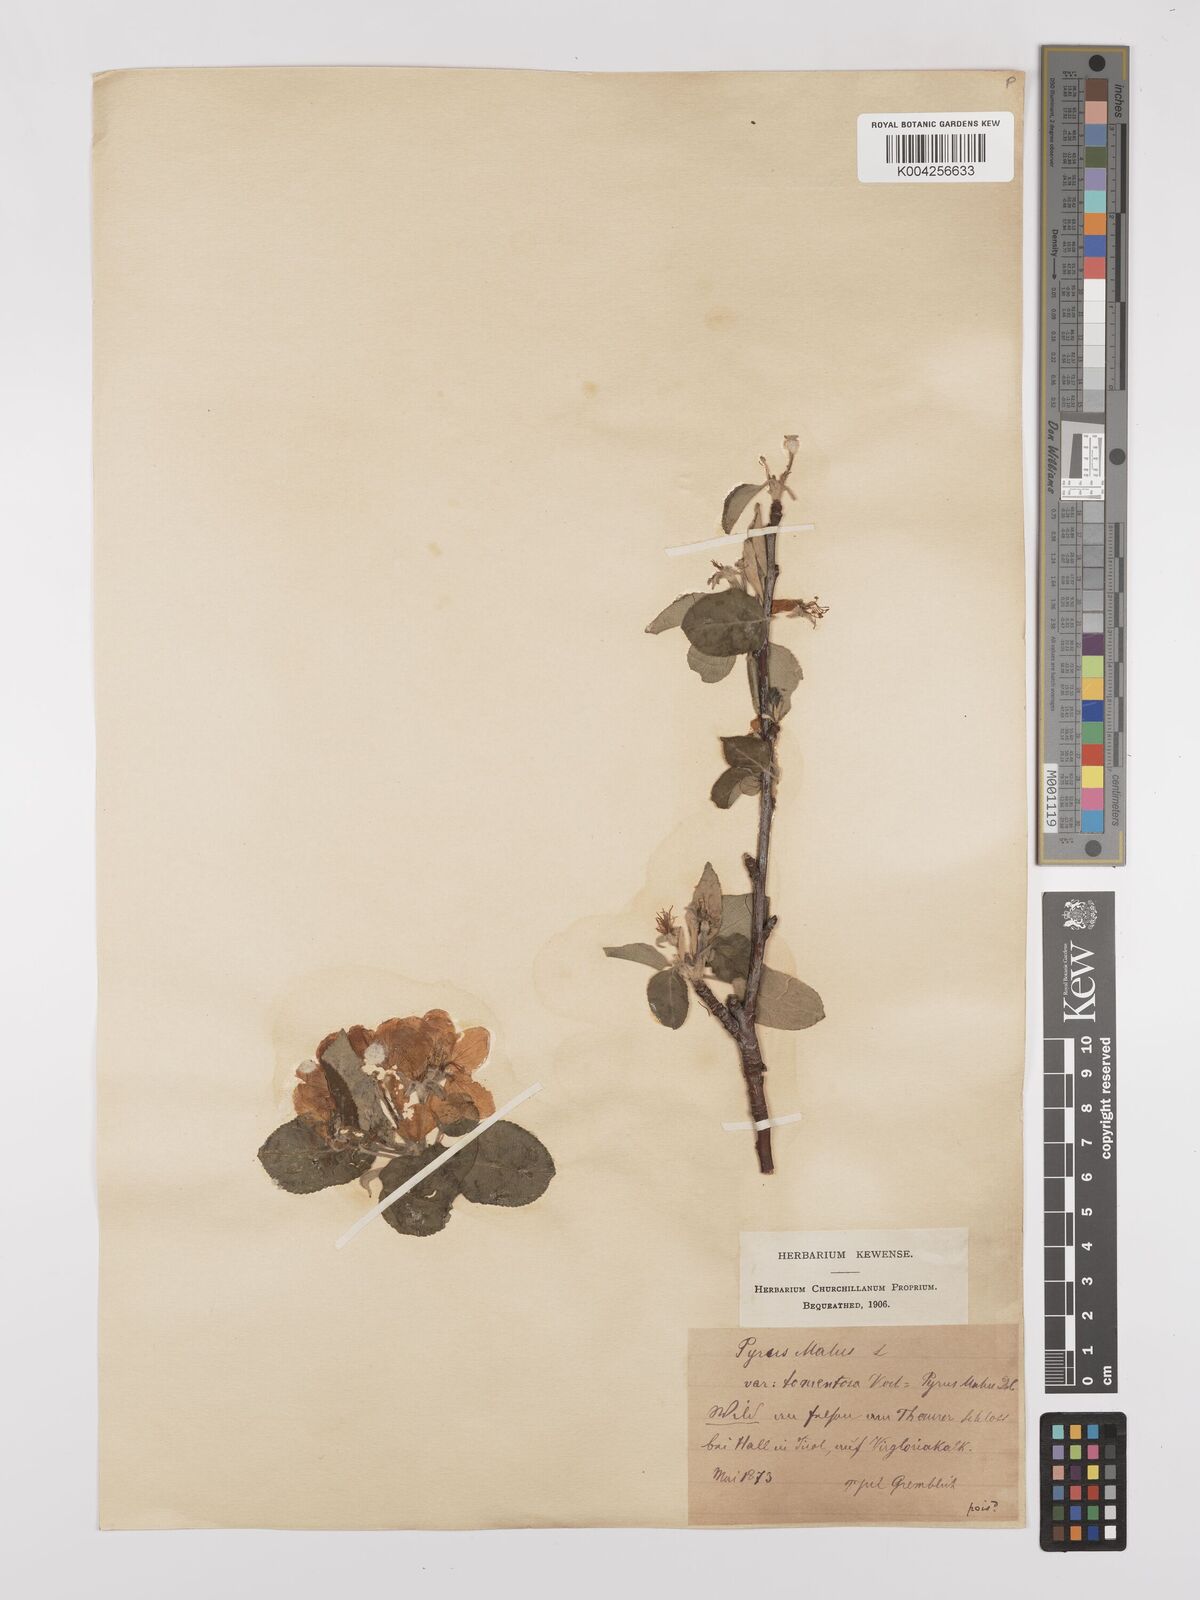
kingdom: Plantae
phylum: Tracheophyta
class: Magnoliopsida
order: Rosales
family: Rosaceae
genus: Malus
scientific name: Malus domestica
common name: Apple
